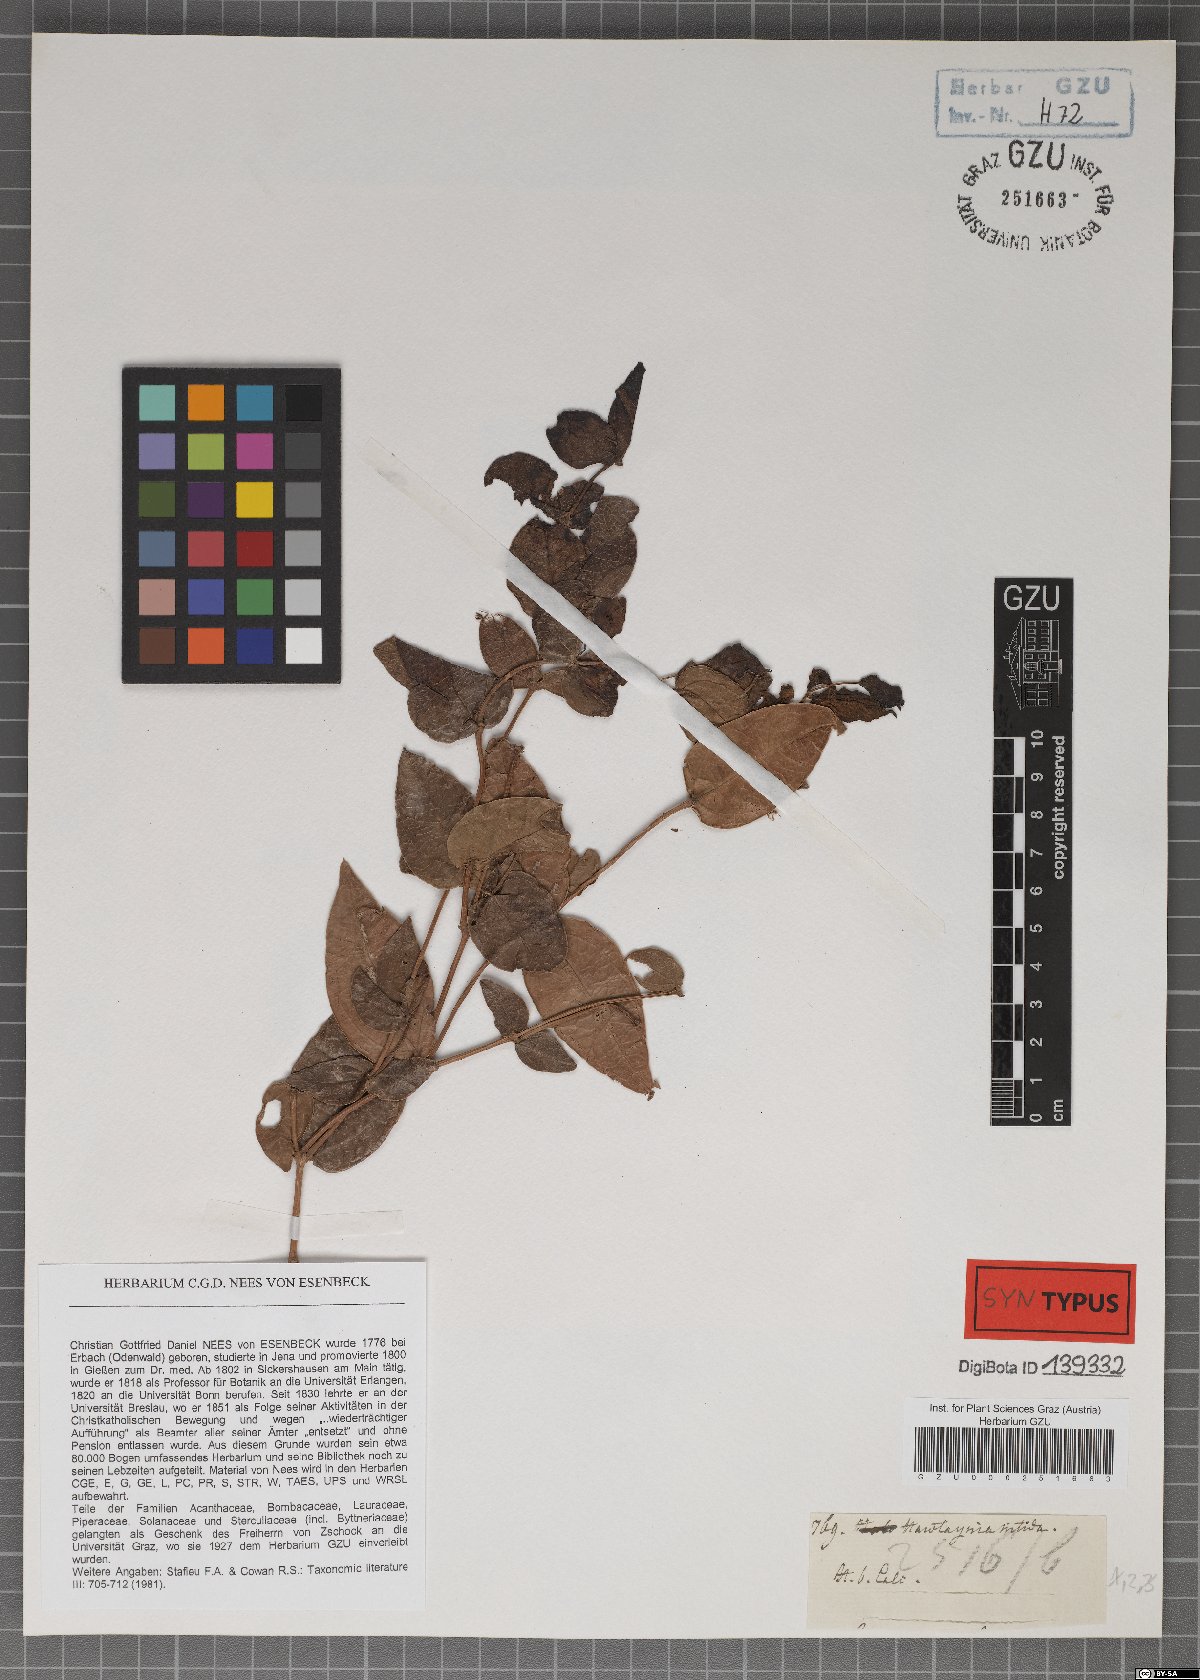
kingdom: Plantae
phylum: Tracheophyta
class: Magnoliopsida
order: Lamiales
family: Acanthaceae
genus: Meyenia
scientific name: Meyenia hawtayneana
